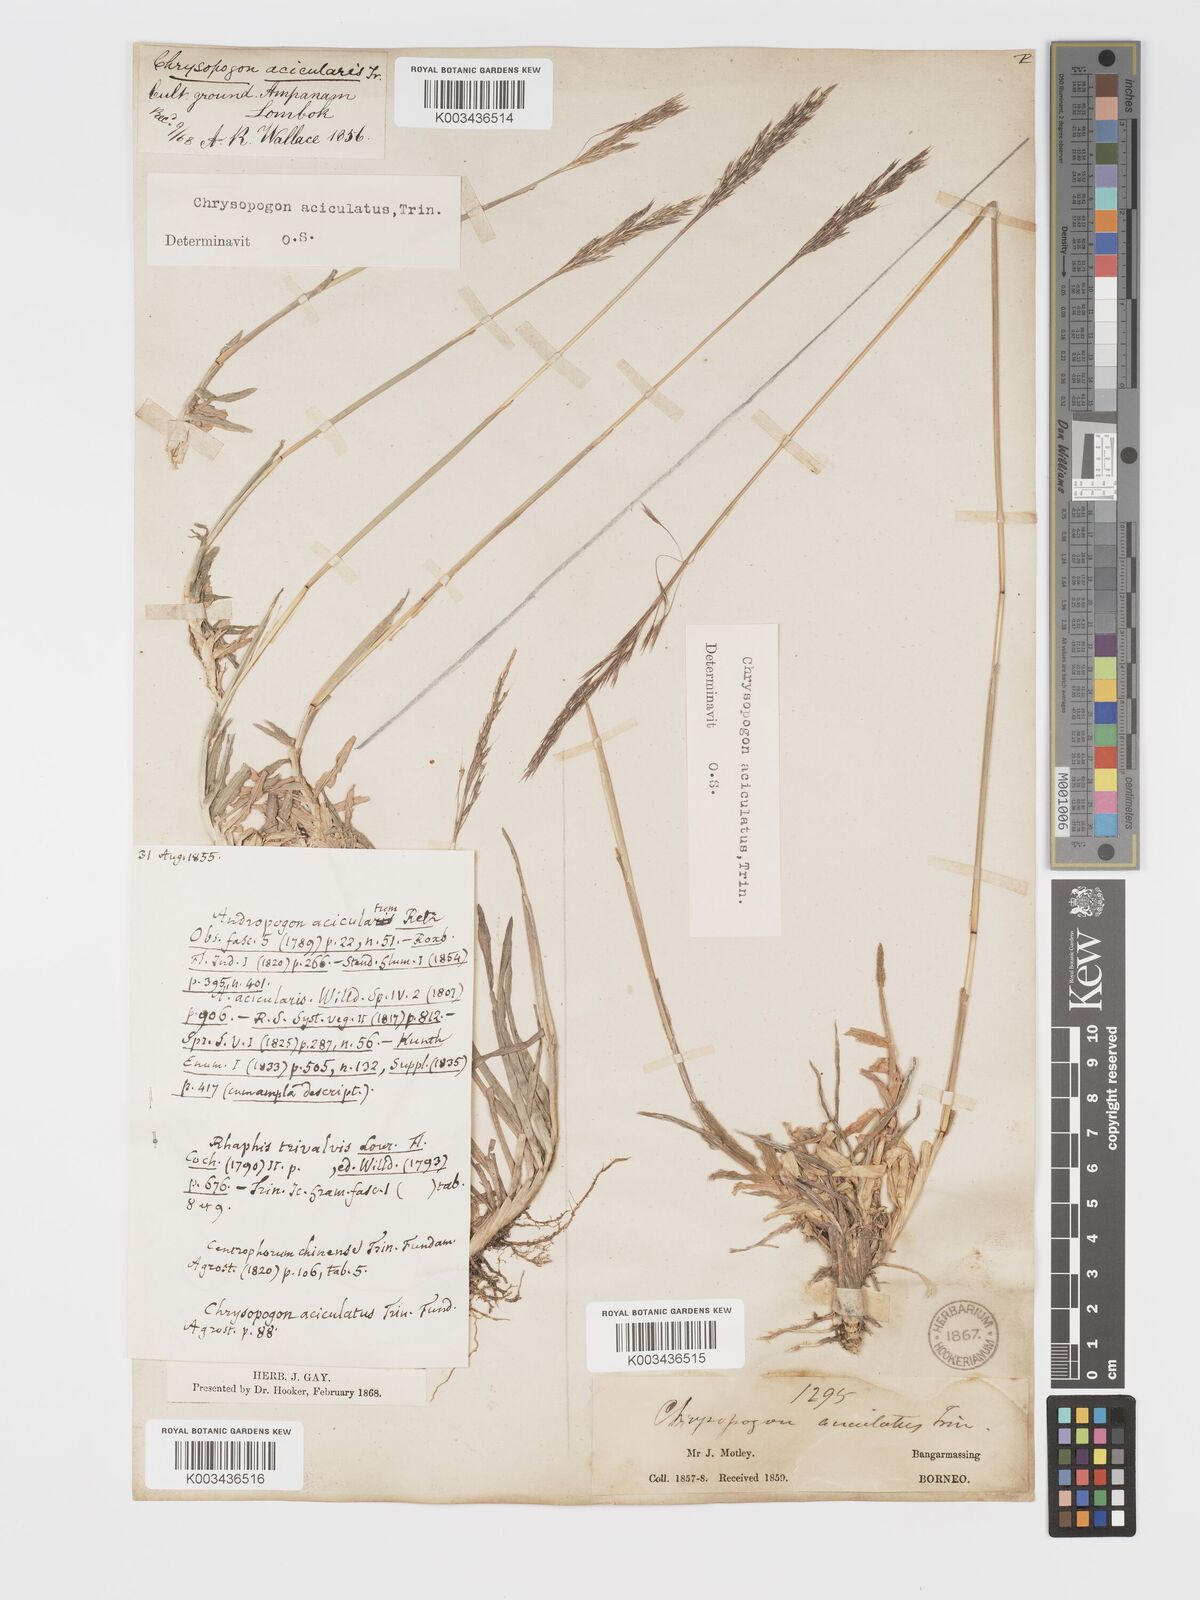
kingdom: Plantae
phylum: Tracheophyta
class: Liliopsida
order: Poales
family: Poaceae
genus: Chrysopogon
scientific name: Chrysopogon aciculatus
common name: Pilipiliula
